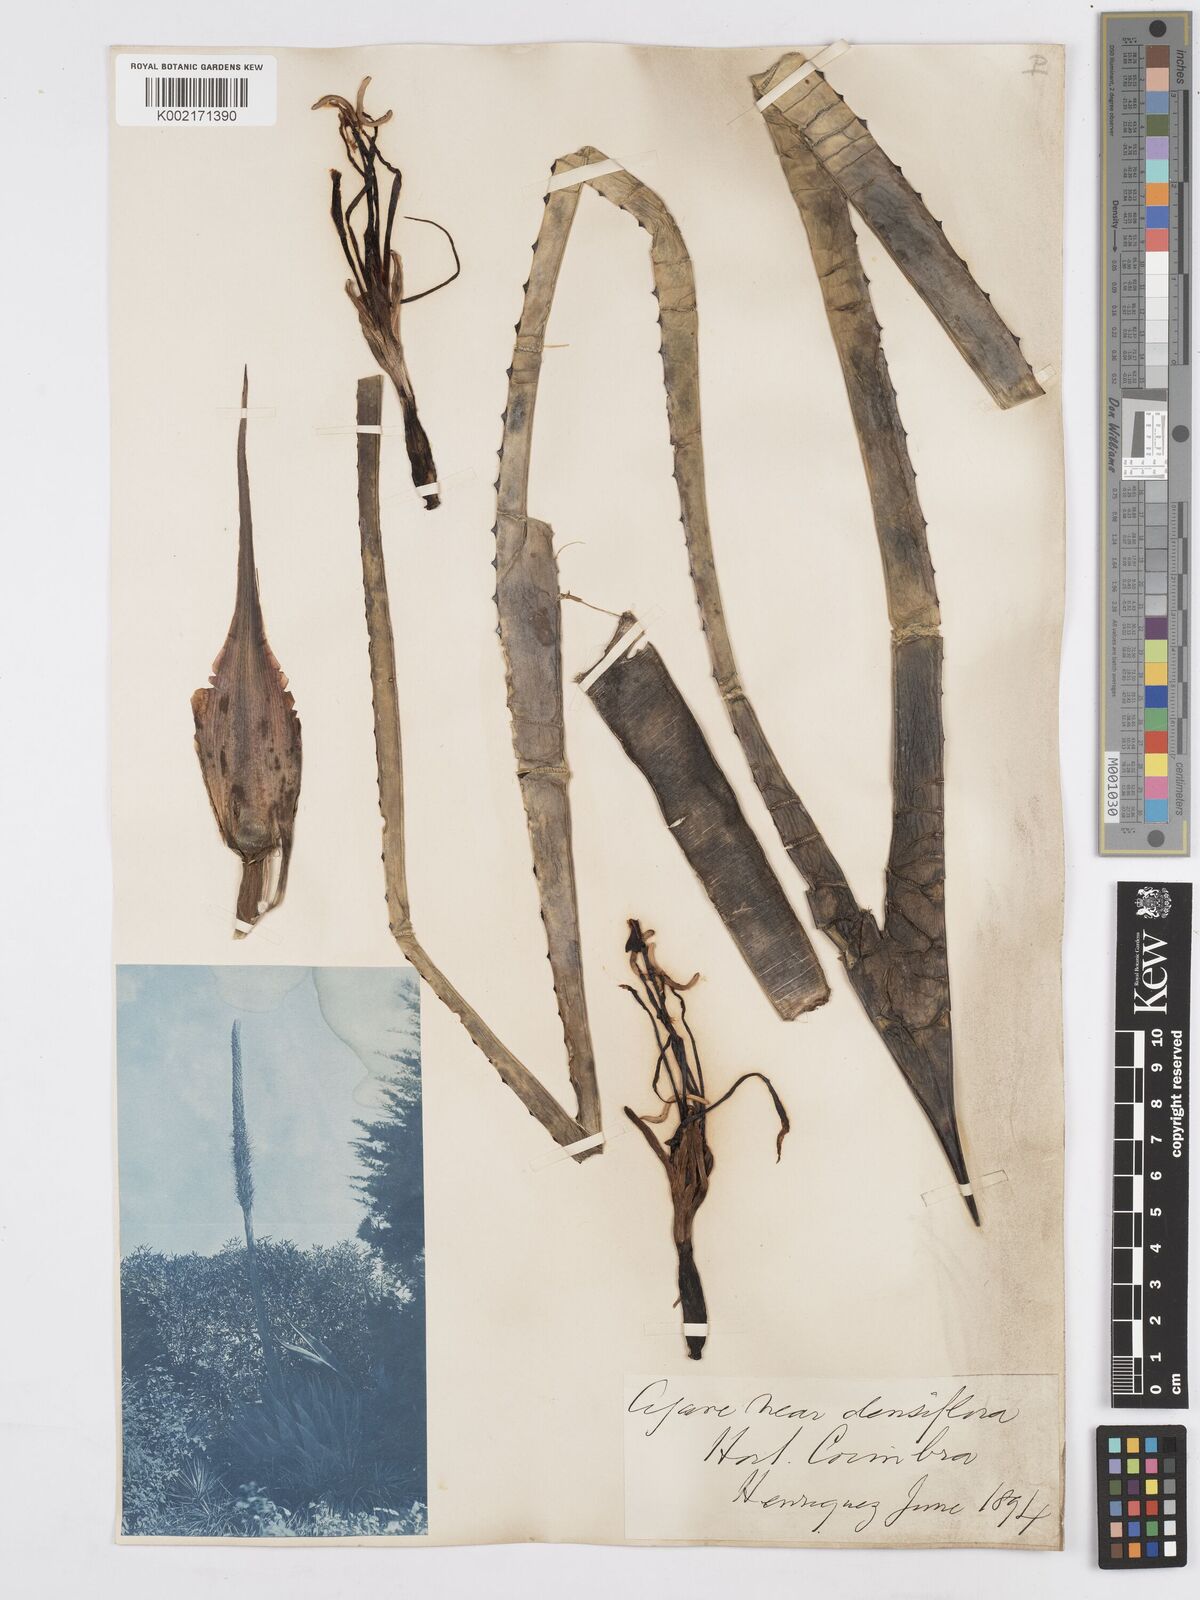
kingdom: Plantae
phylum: Tracheophyta
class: Liliopsida
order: Asparagales
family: Asparagaceae
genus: Agave
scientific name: Agave polyacantha
